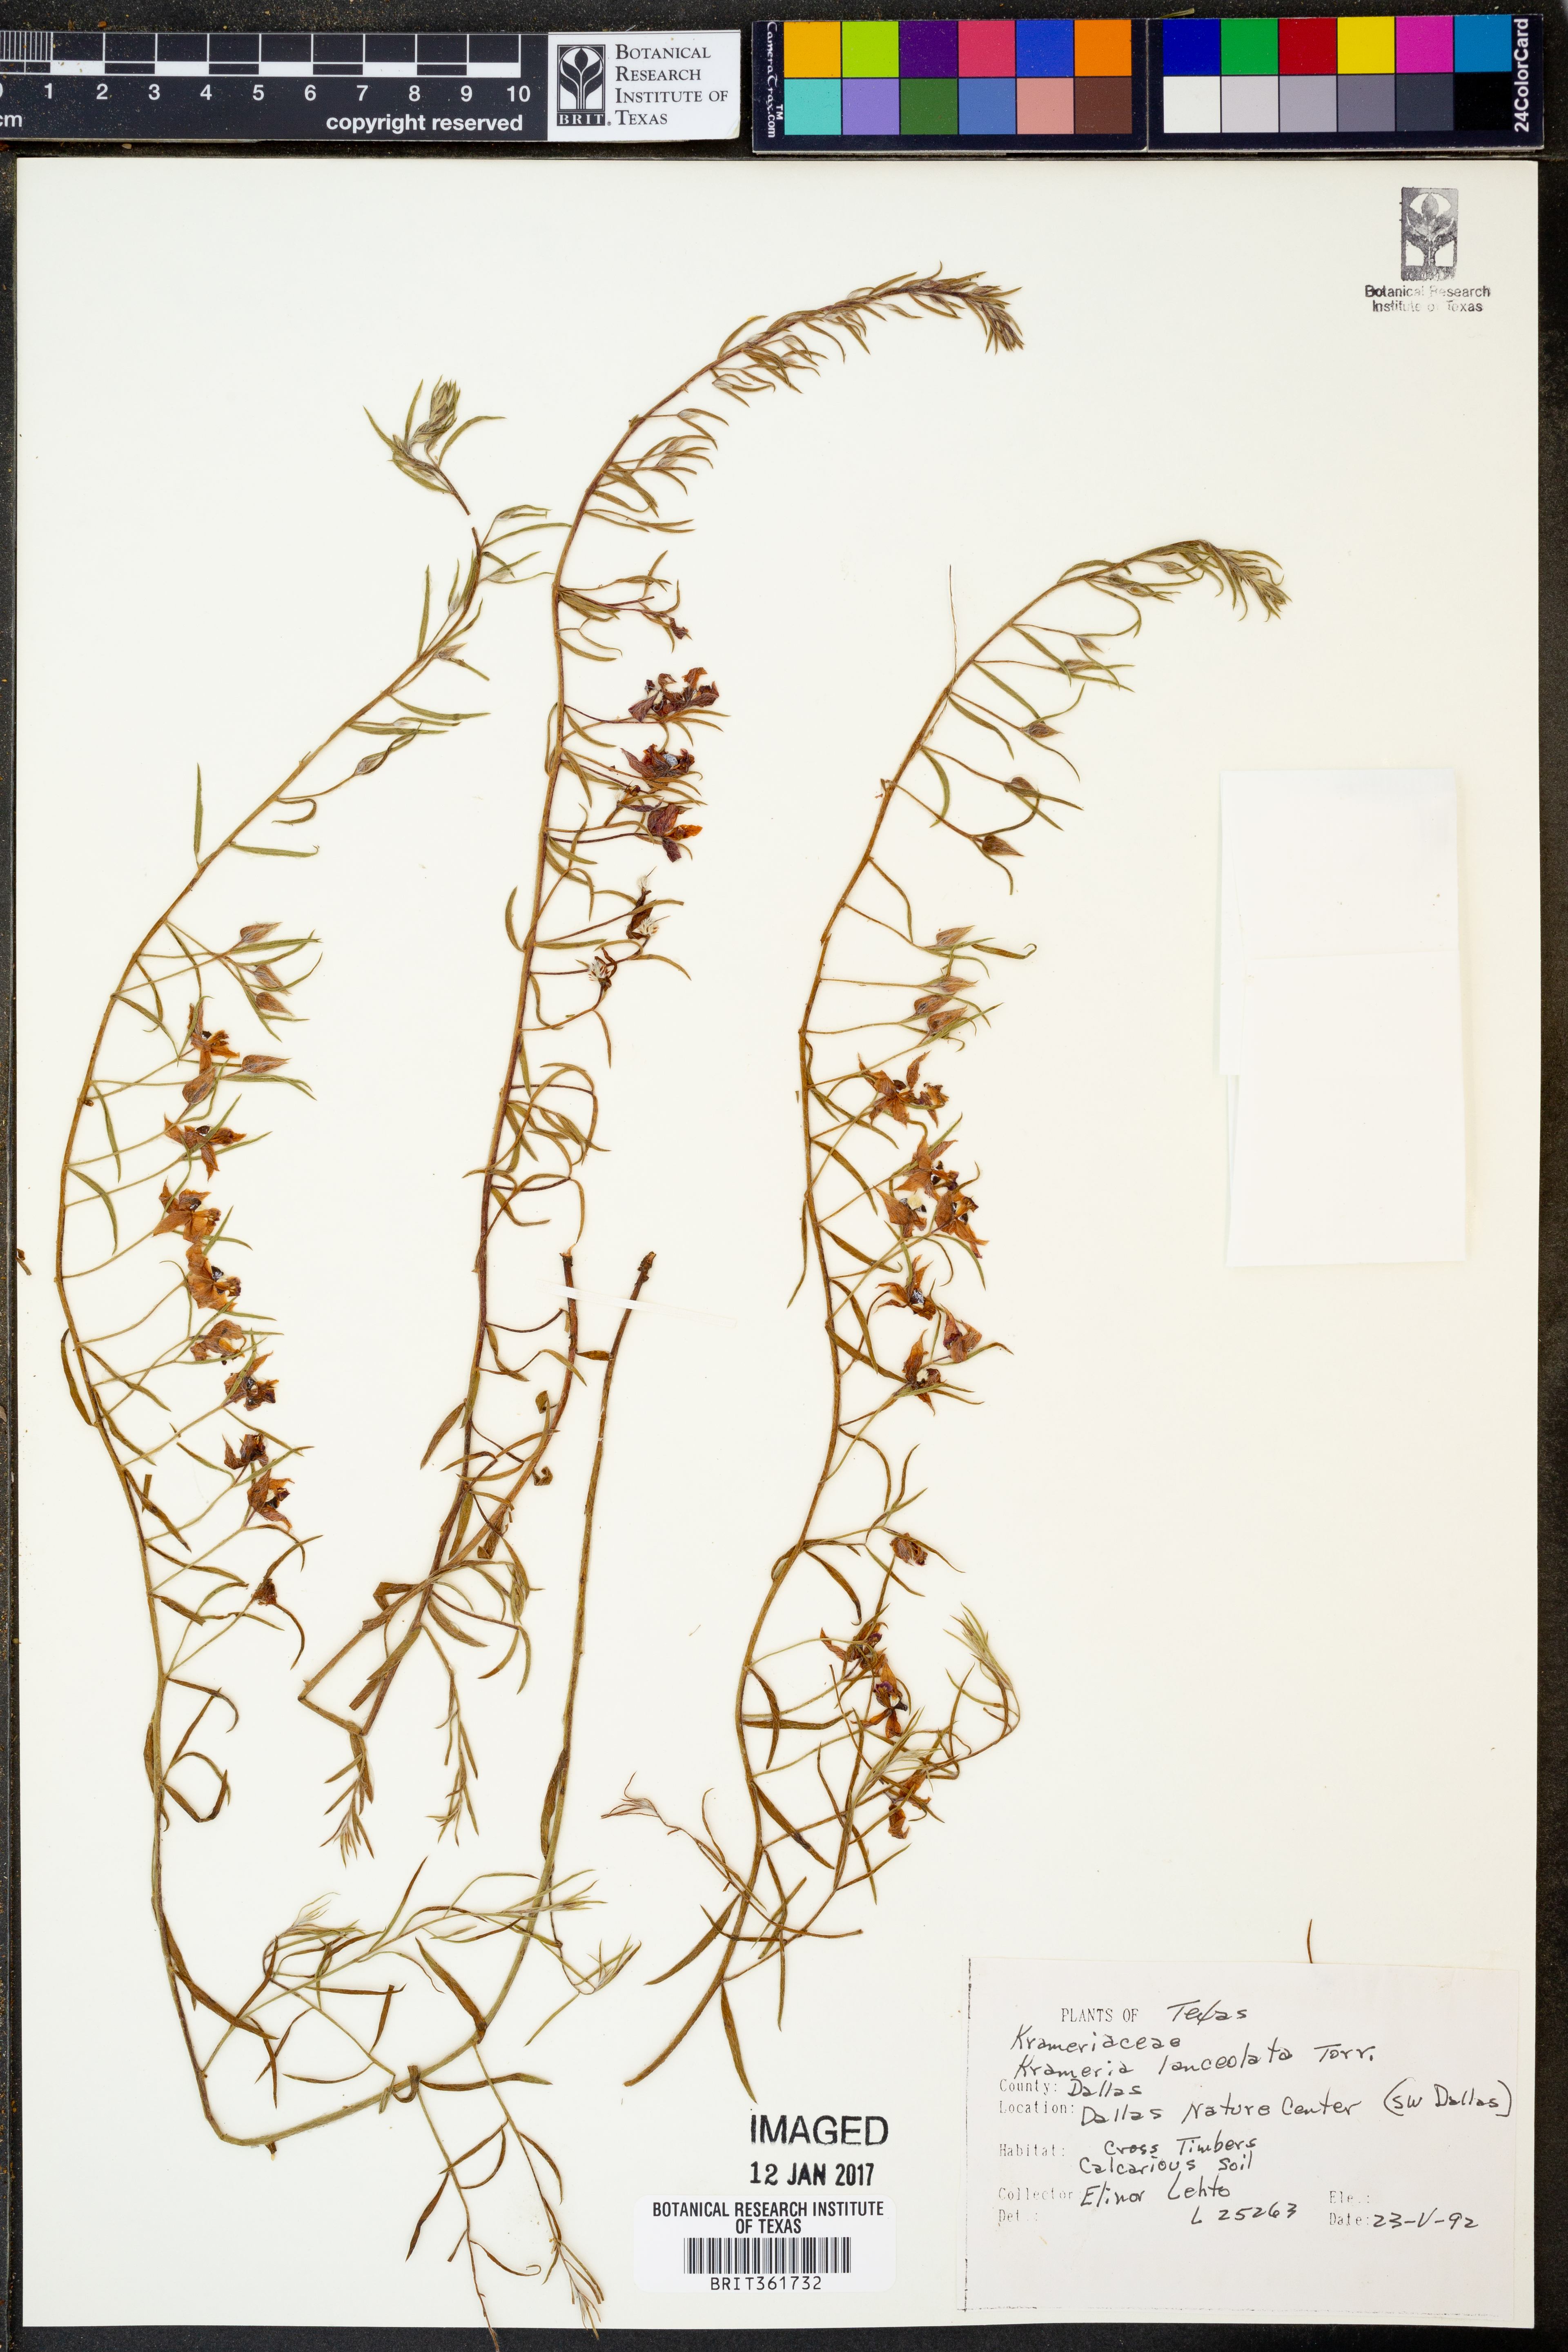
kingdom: Plantae
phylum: Tracheophyta
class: Magnoliopsida
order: Zygophyllales
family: Krameriaceae
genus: Krameria
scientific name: Krameria lanceolata
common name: Ratany
